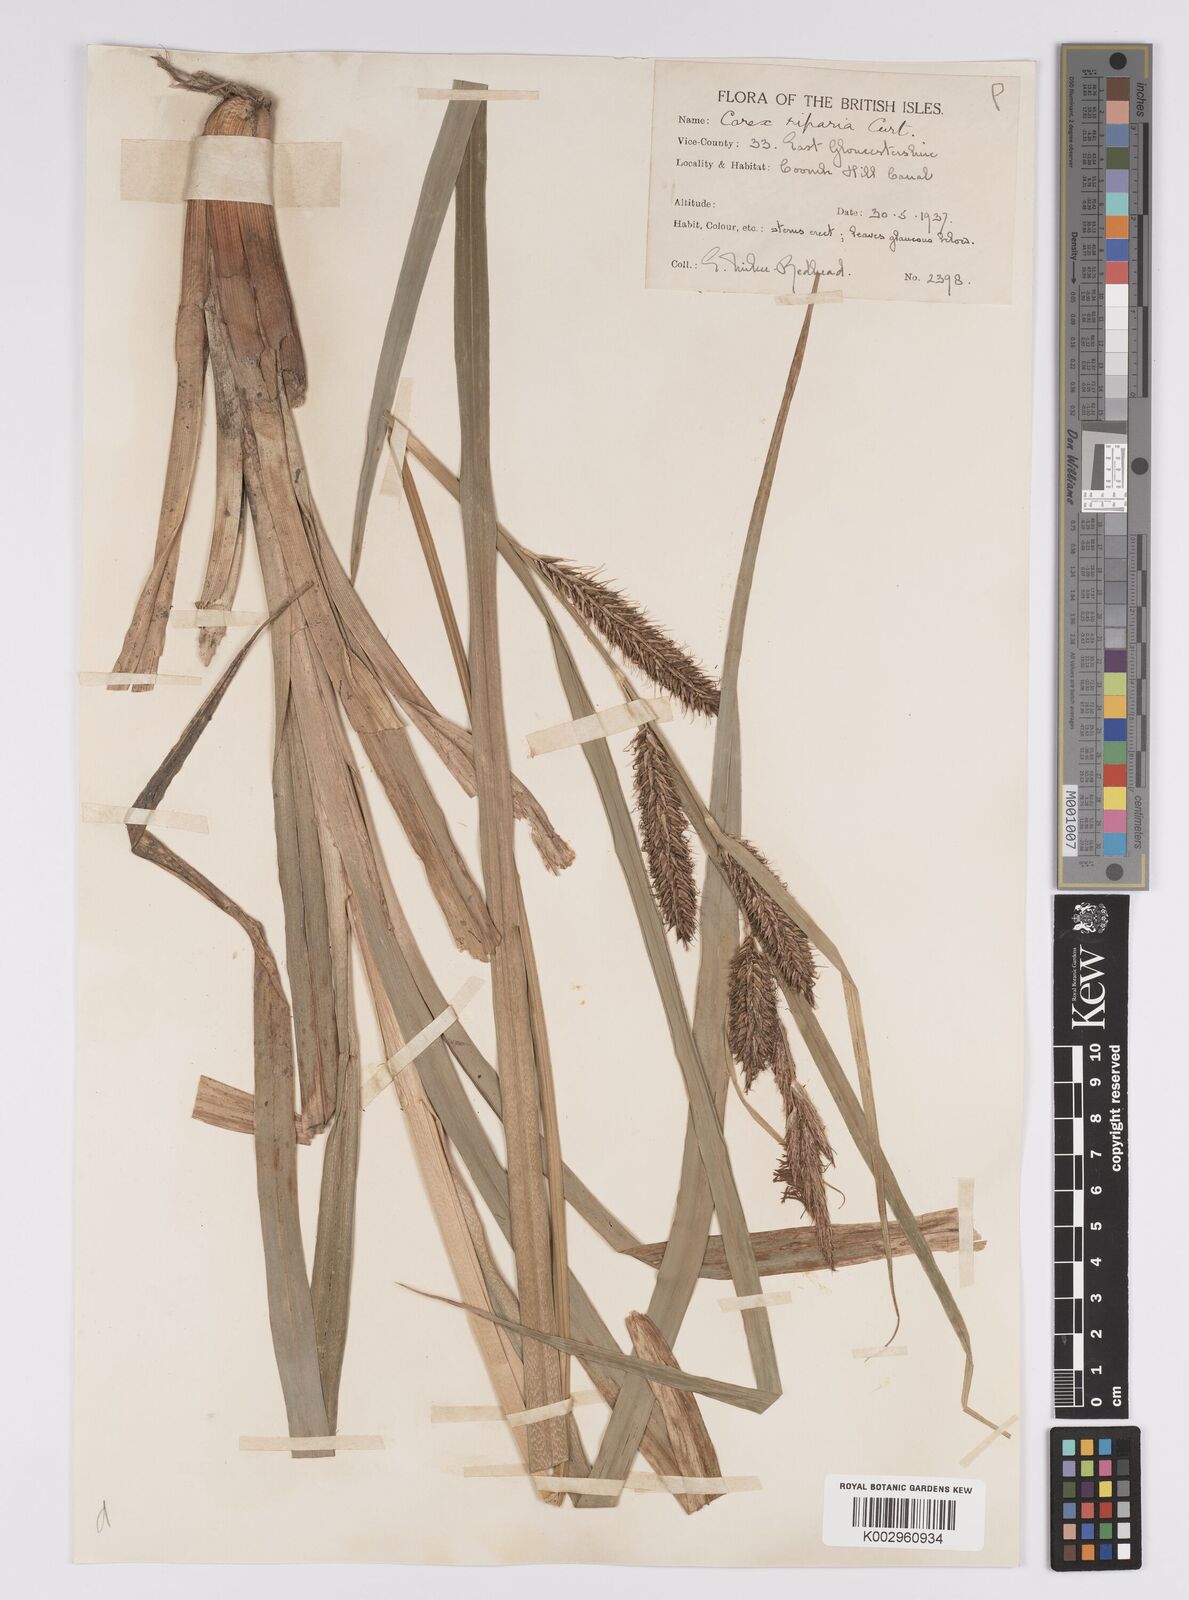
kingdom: Plantae
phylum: Tracheophyta
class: Liliopsida
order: Poales
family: Cyperaceae
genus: Carex
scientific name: Carex riparia
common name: Greater pond-sedge
